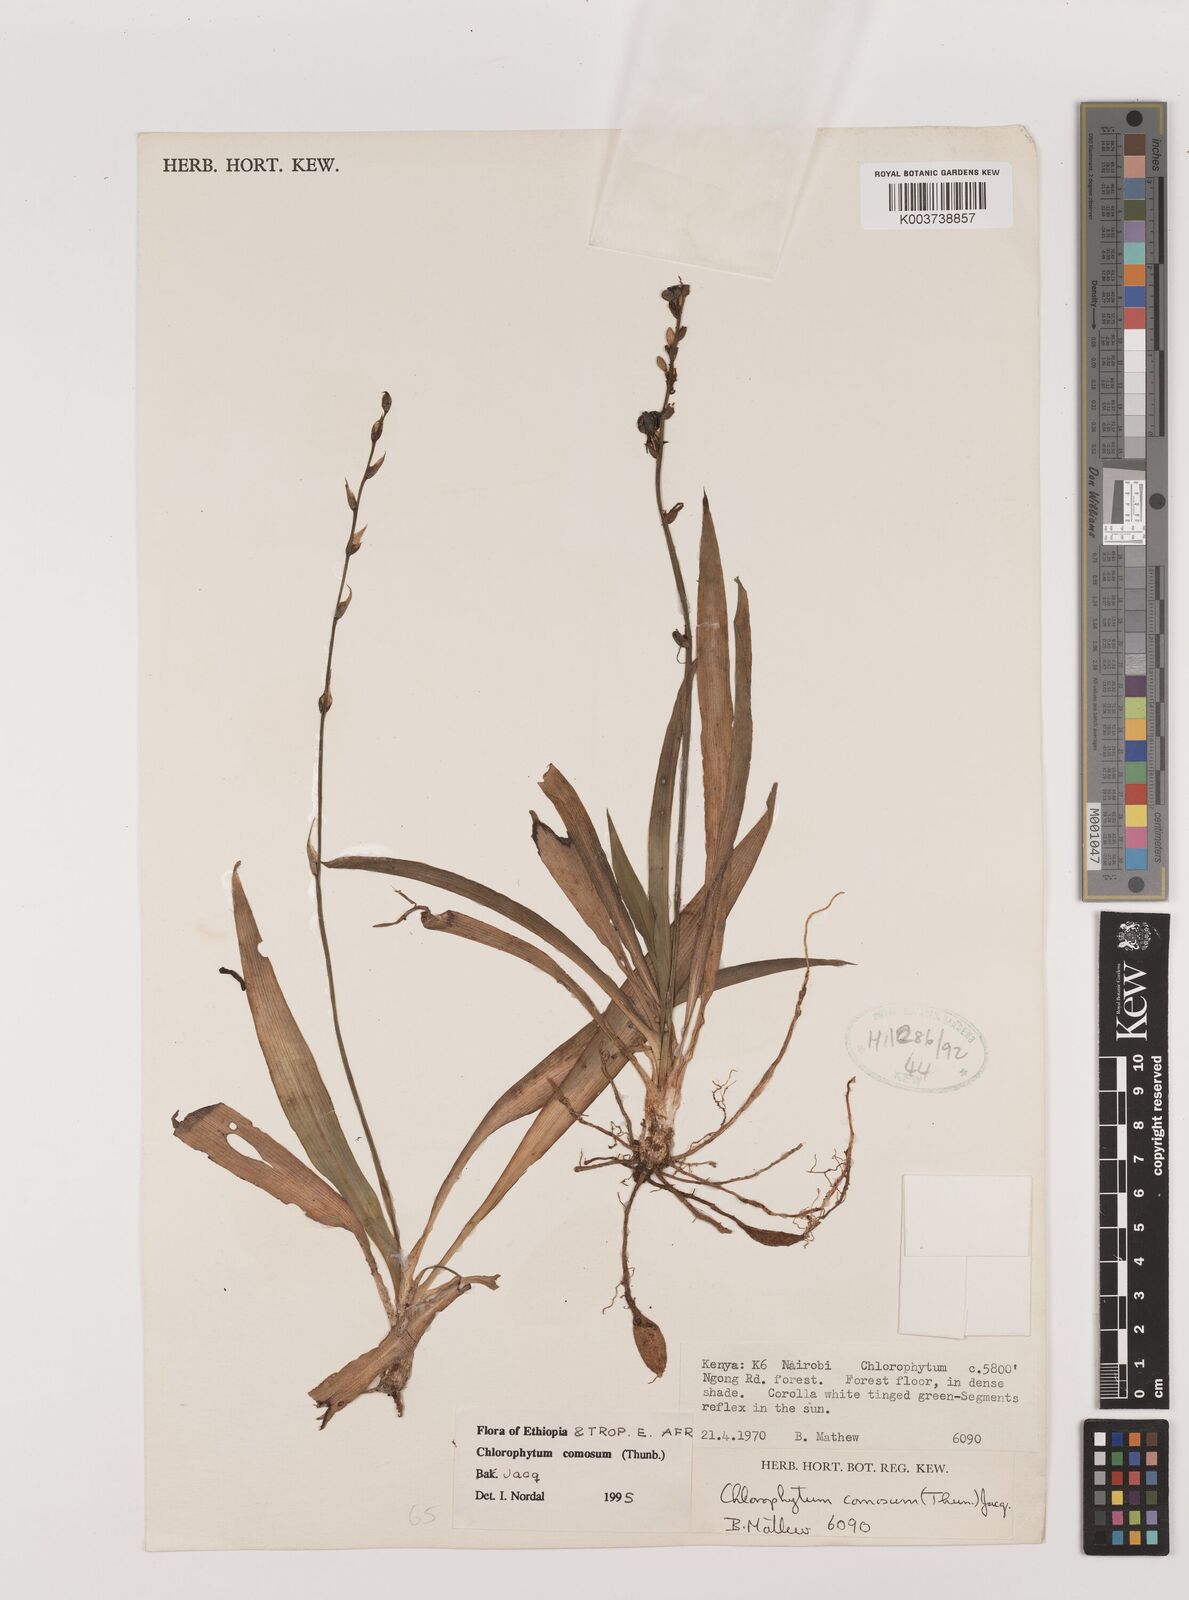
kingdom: Plantae
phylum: Tracheophyta
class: Liliopsida
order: Asparagales
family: Asparagaceae
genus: Chlorophytum
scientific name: Chlorophytum comosum
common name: Spider plant
